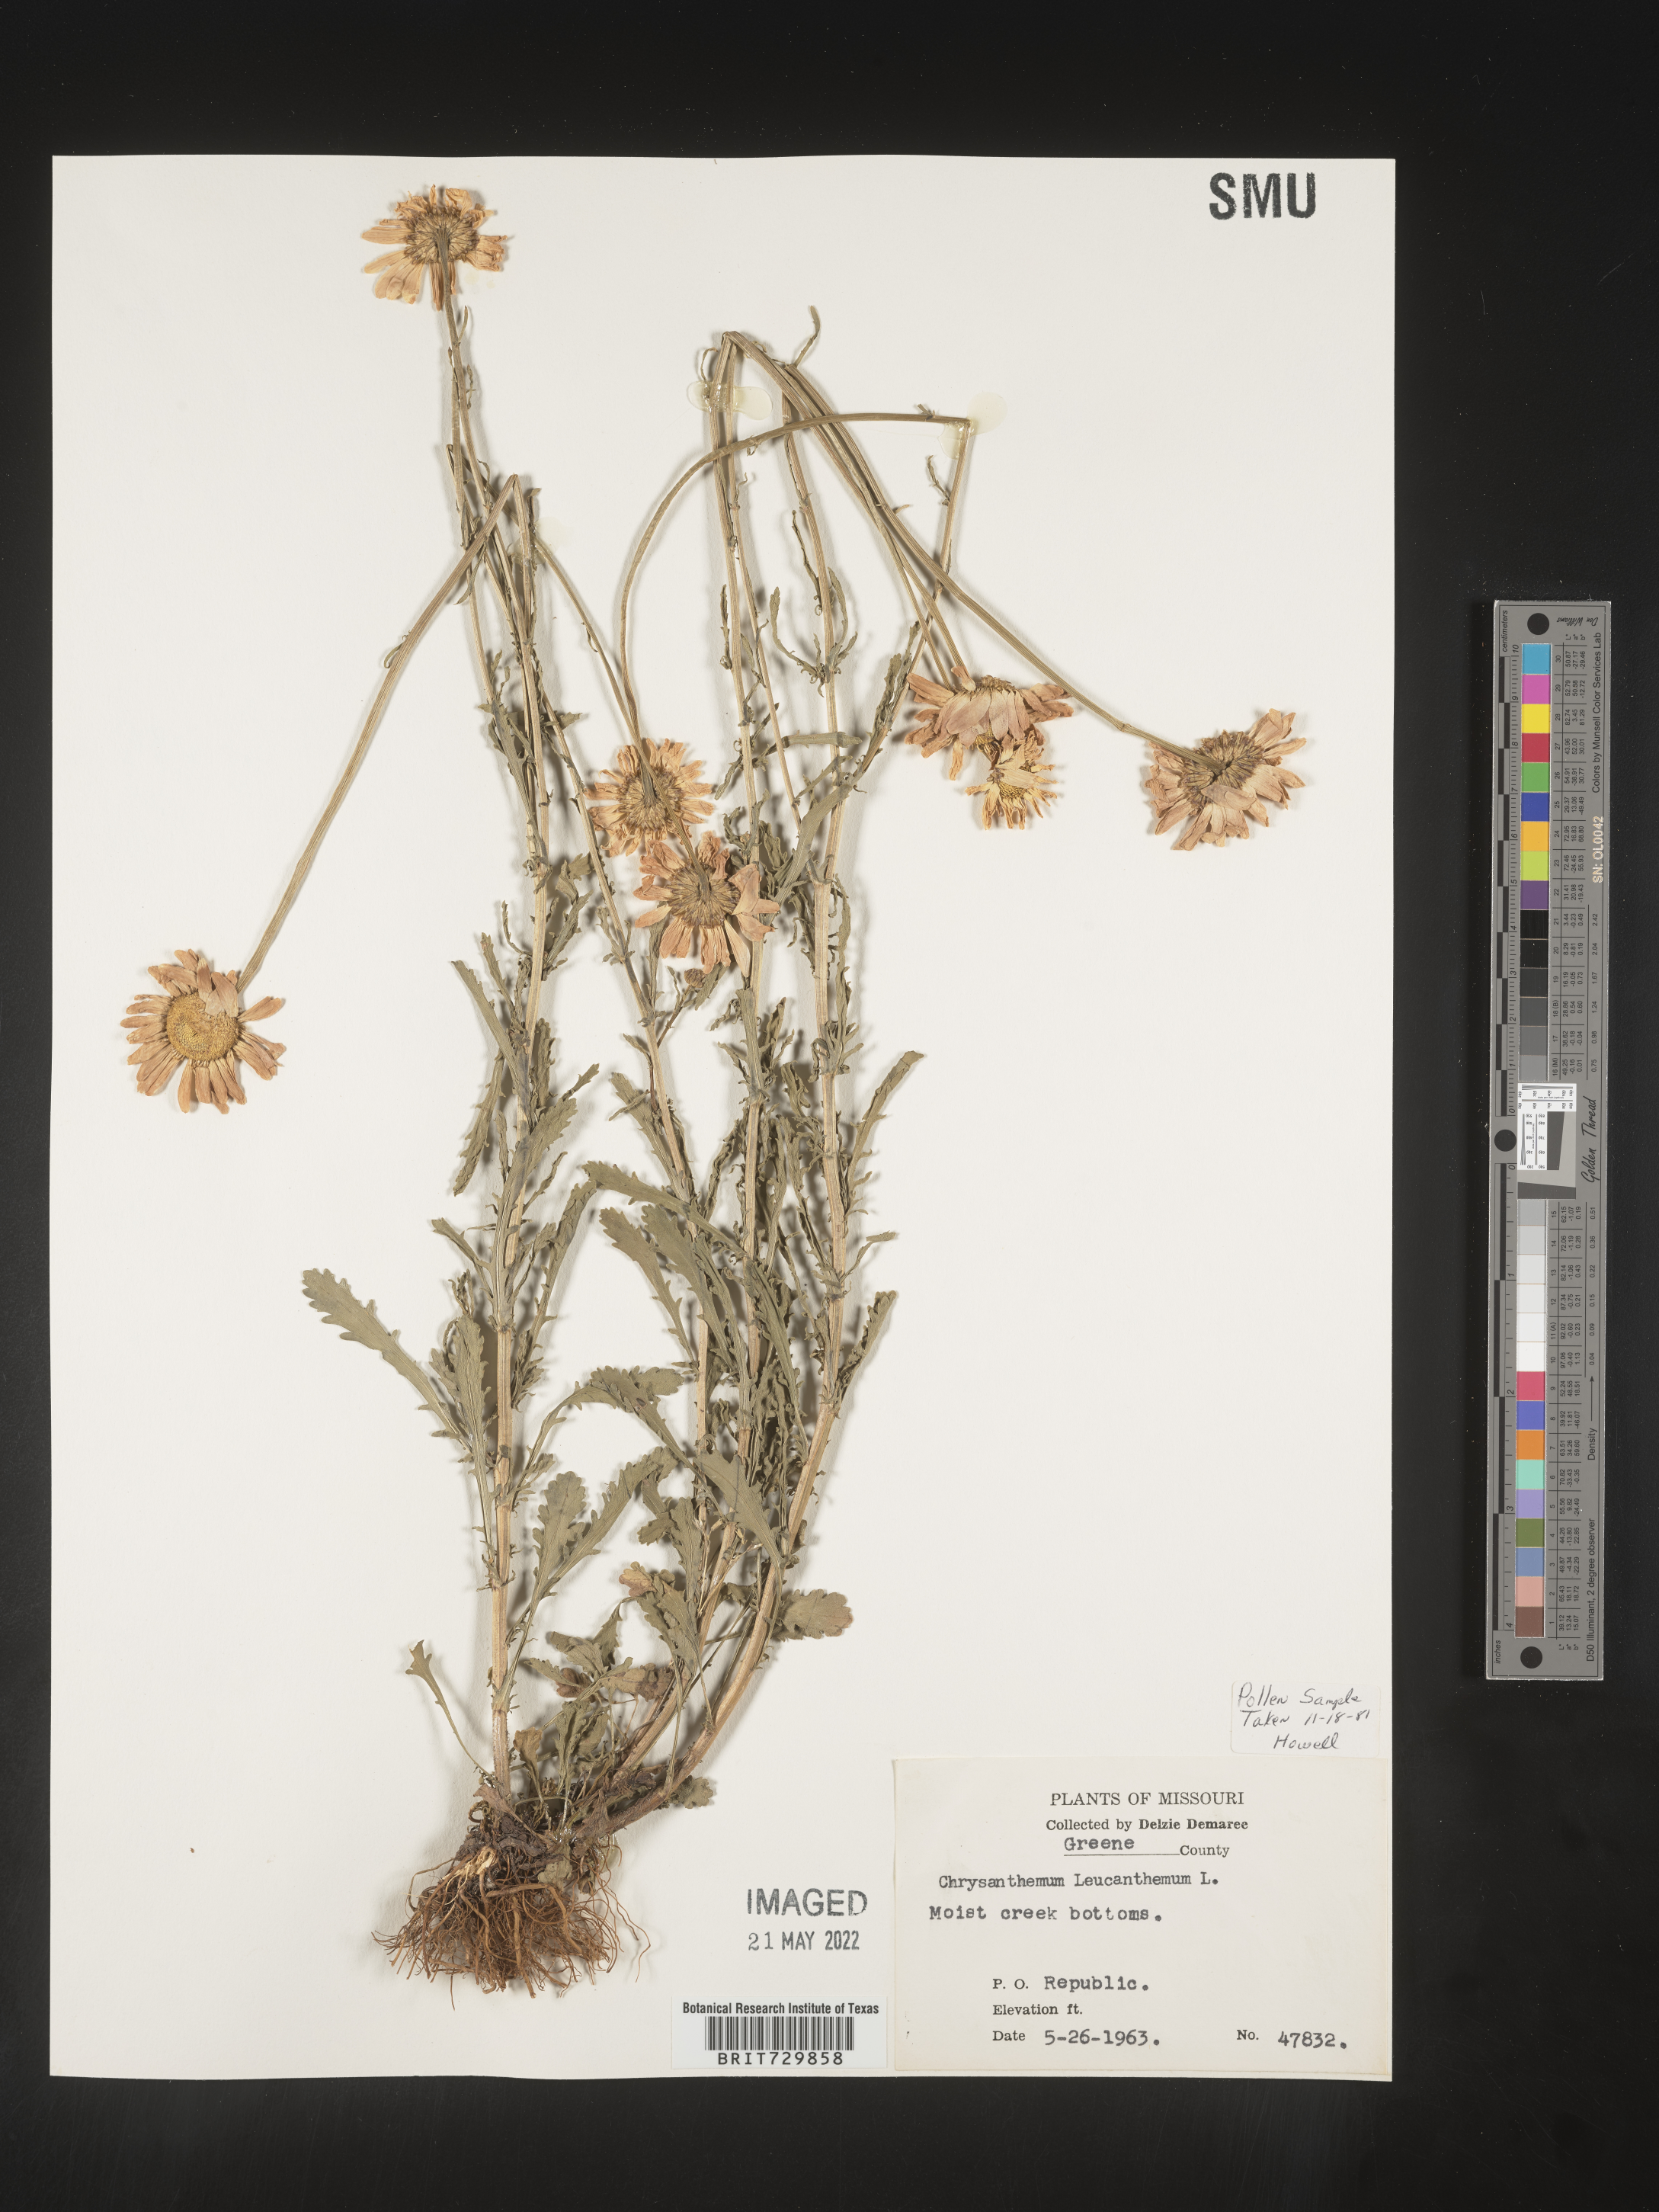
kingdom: Plantae
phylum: Tracheophyta
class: Magnoliopsida
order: Asterales
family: Asteraceae
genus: Leucanthemum
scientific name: Leucanthemum vulgare
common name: Oxeye daisy
